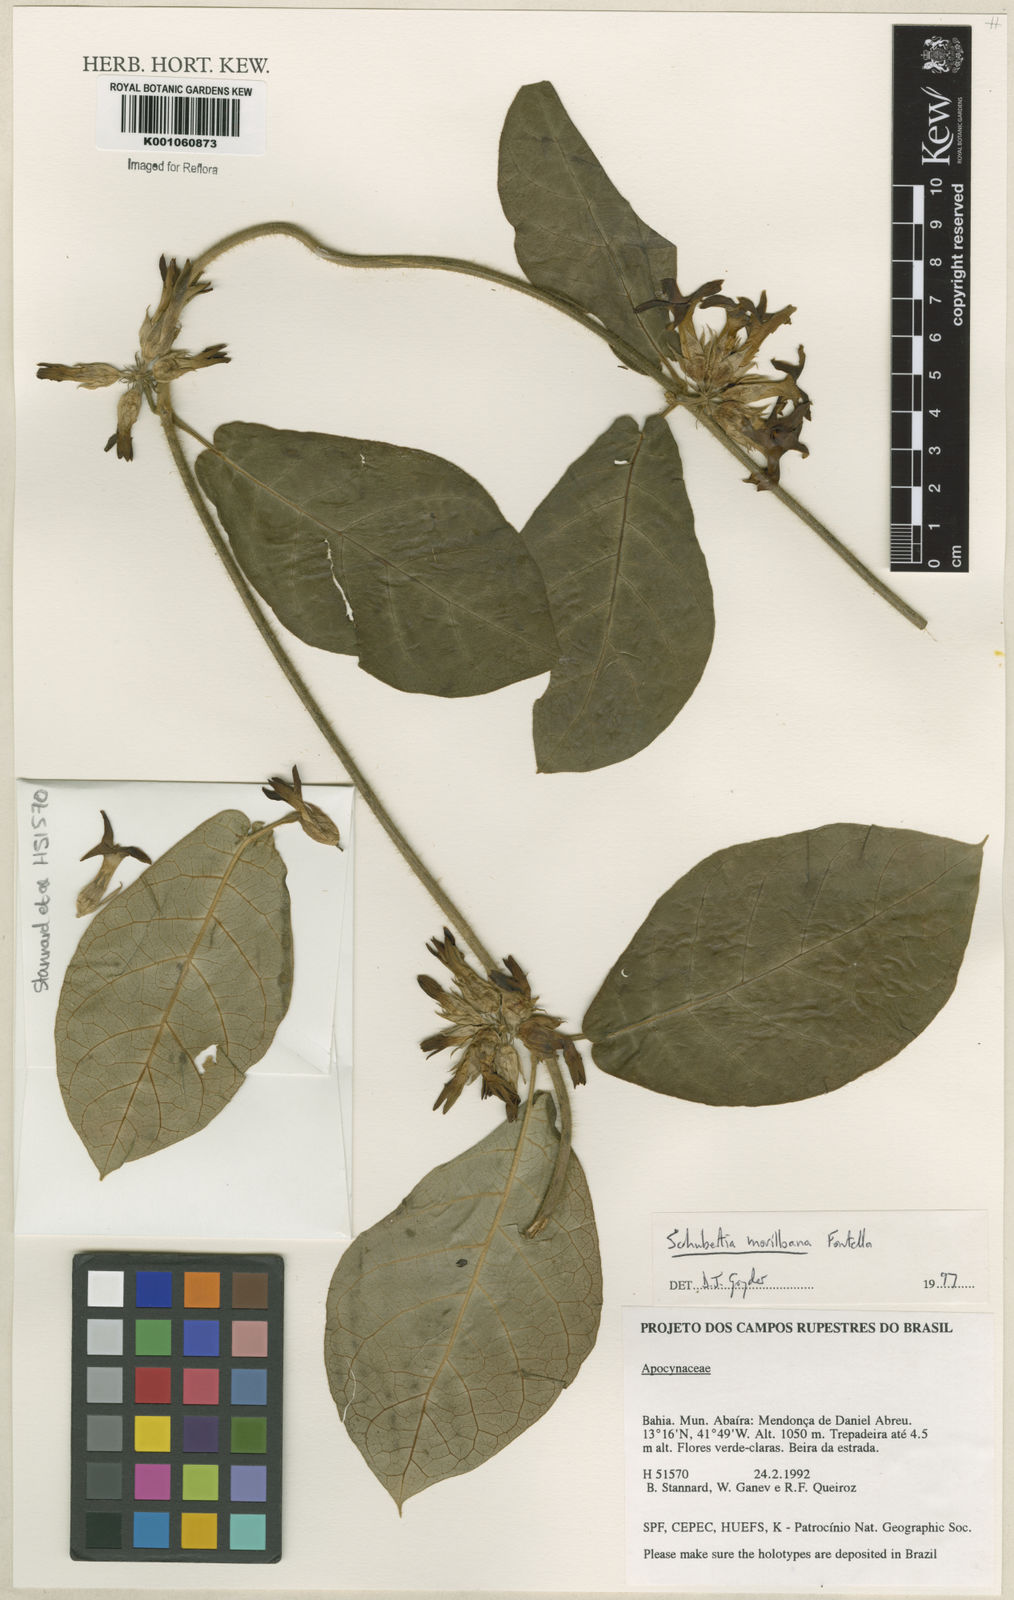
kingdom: Plantae
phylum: Tracheophyta
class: Magnoliopsida
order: Gentianales
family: Apocynaceae
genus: Schubertia
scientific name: Schubertia multiflora
